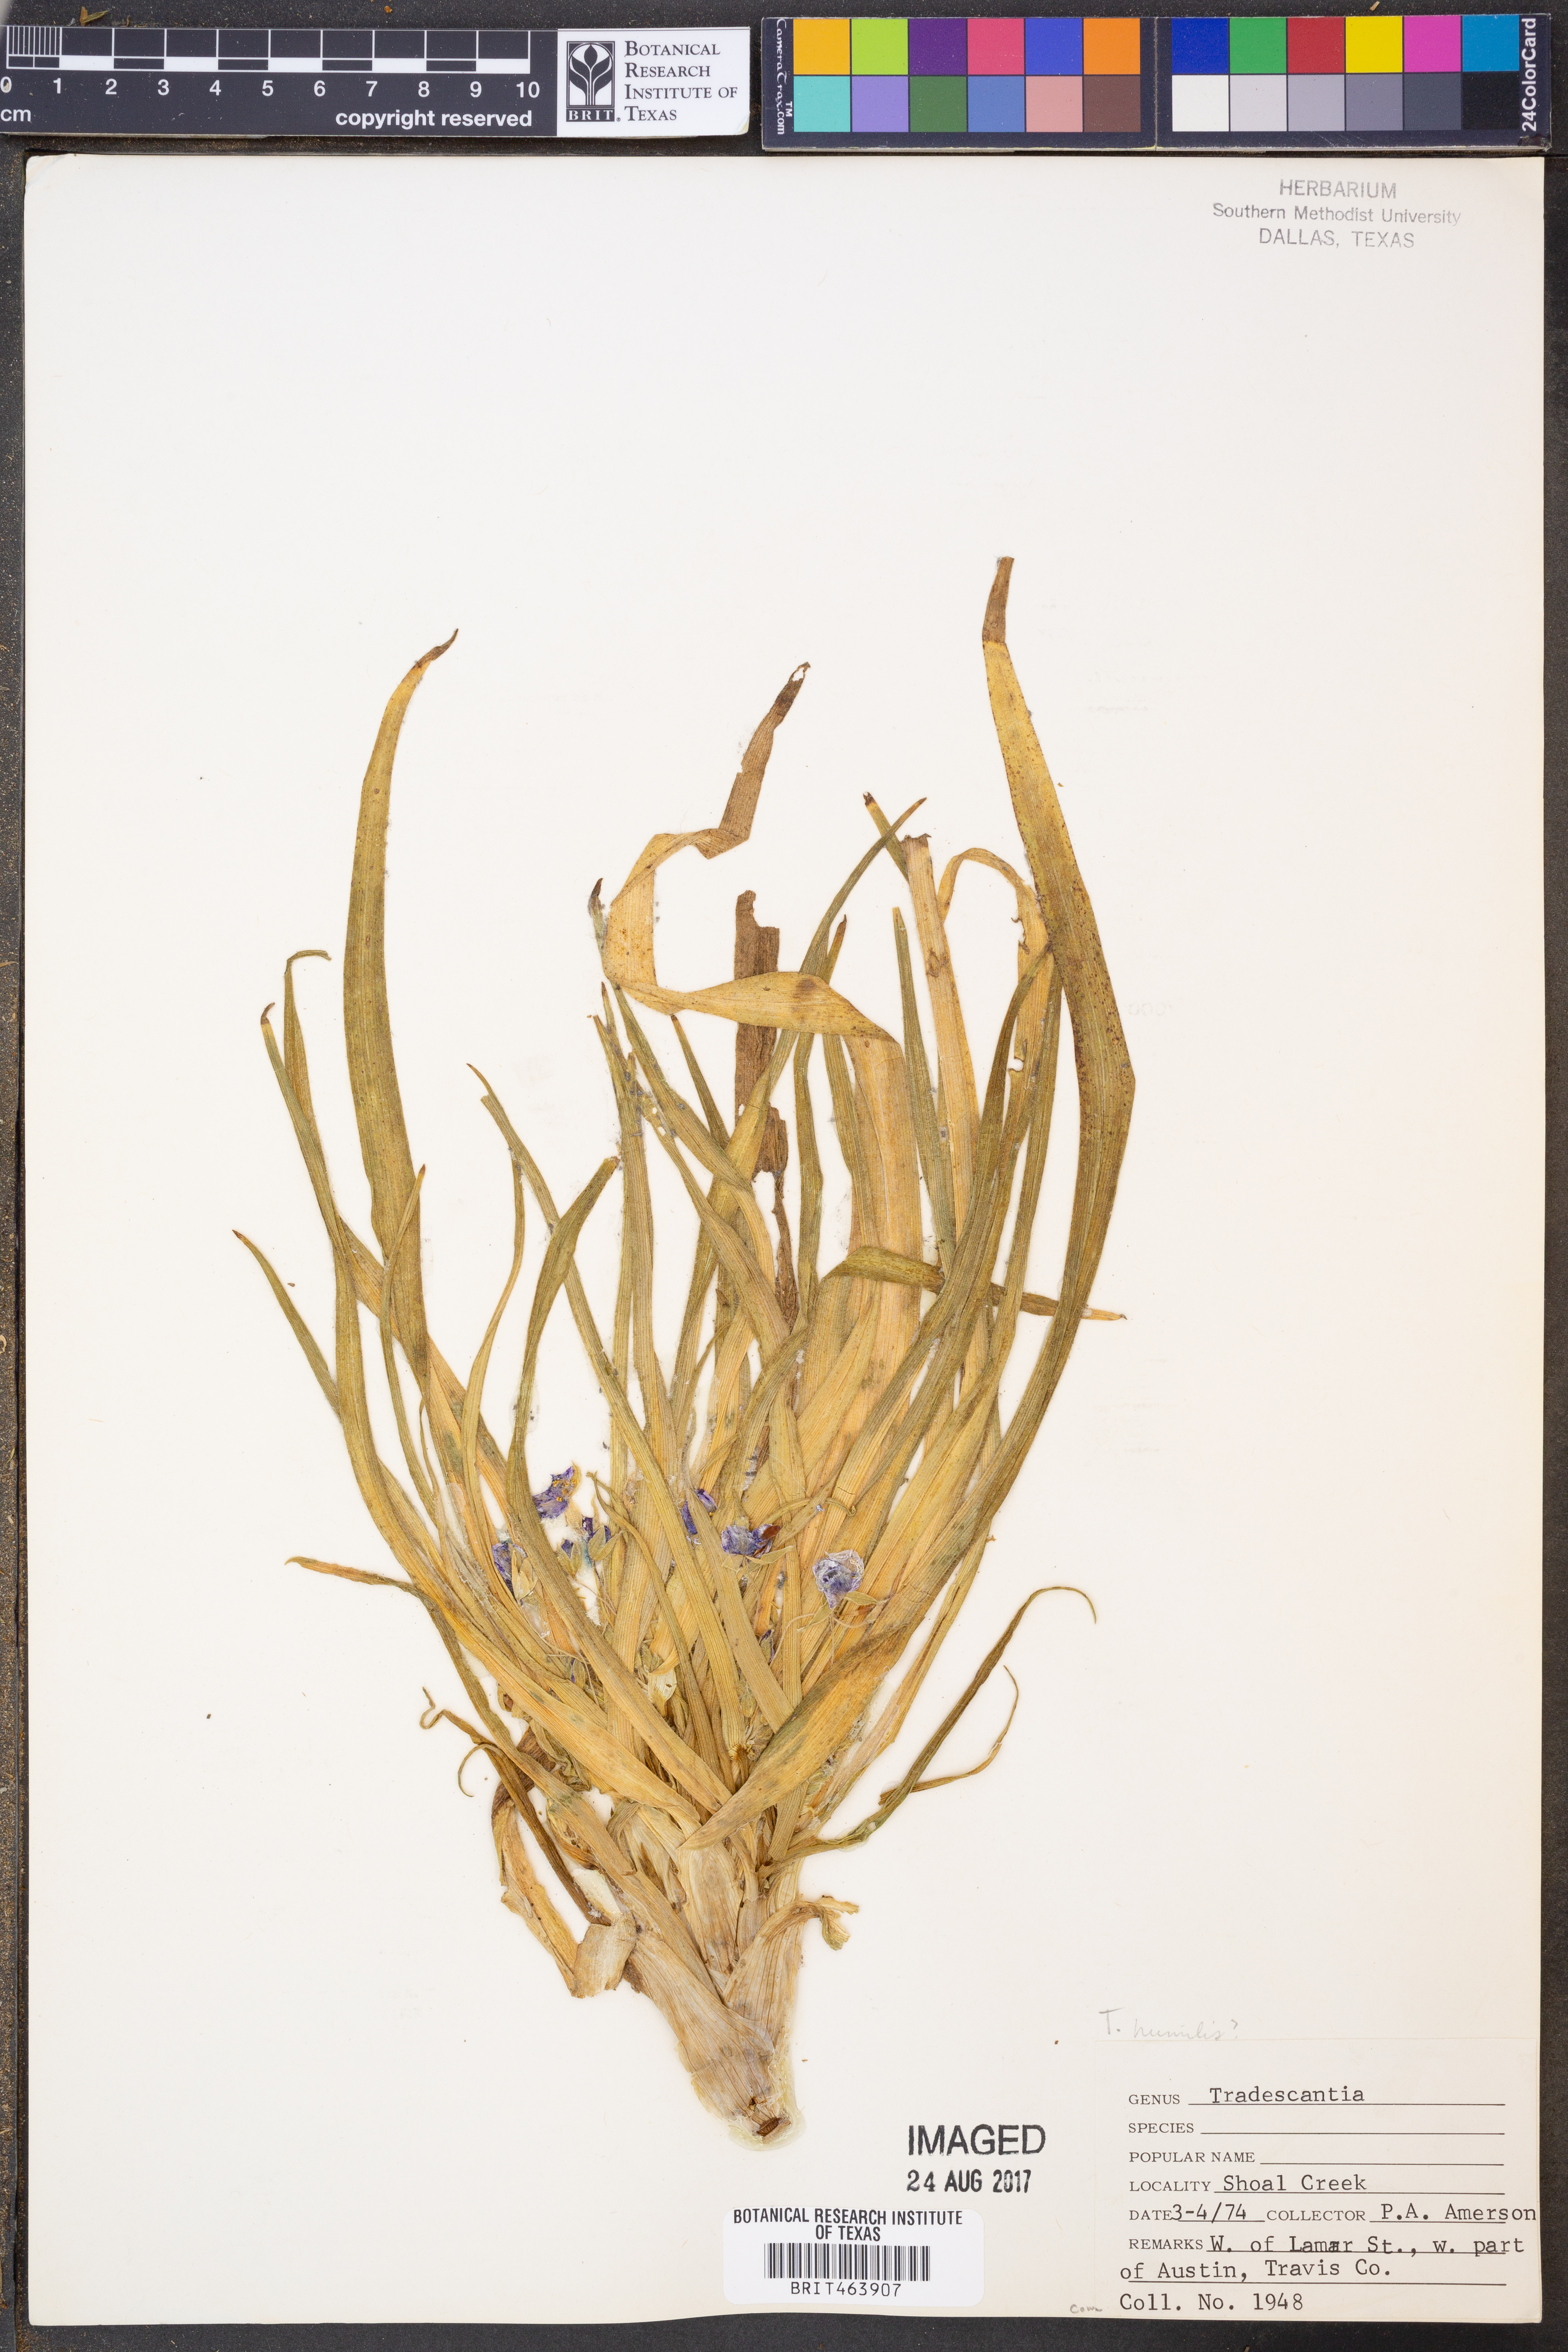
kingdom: Plantae
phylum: Tracheophyta
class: Liliopsida
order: Commelinales
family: Commelinaceae
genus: Tradescantia
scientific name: Tradescantia humilis
